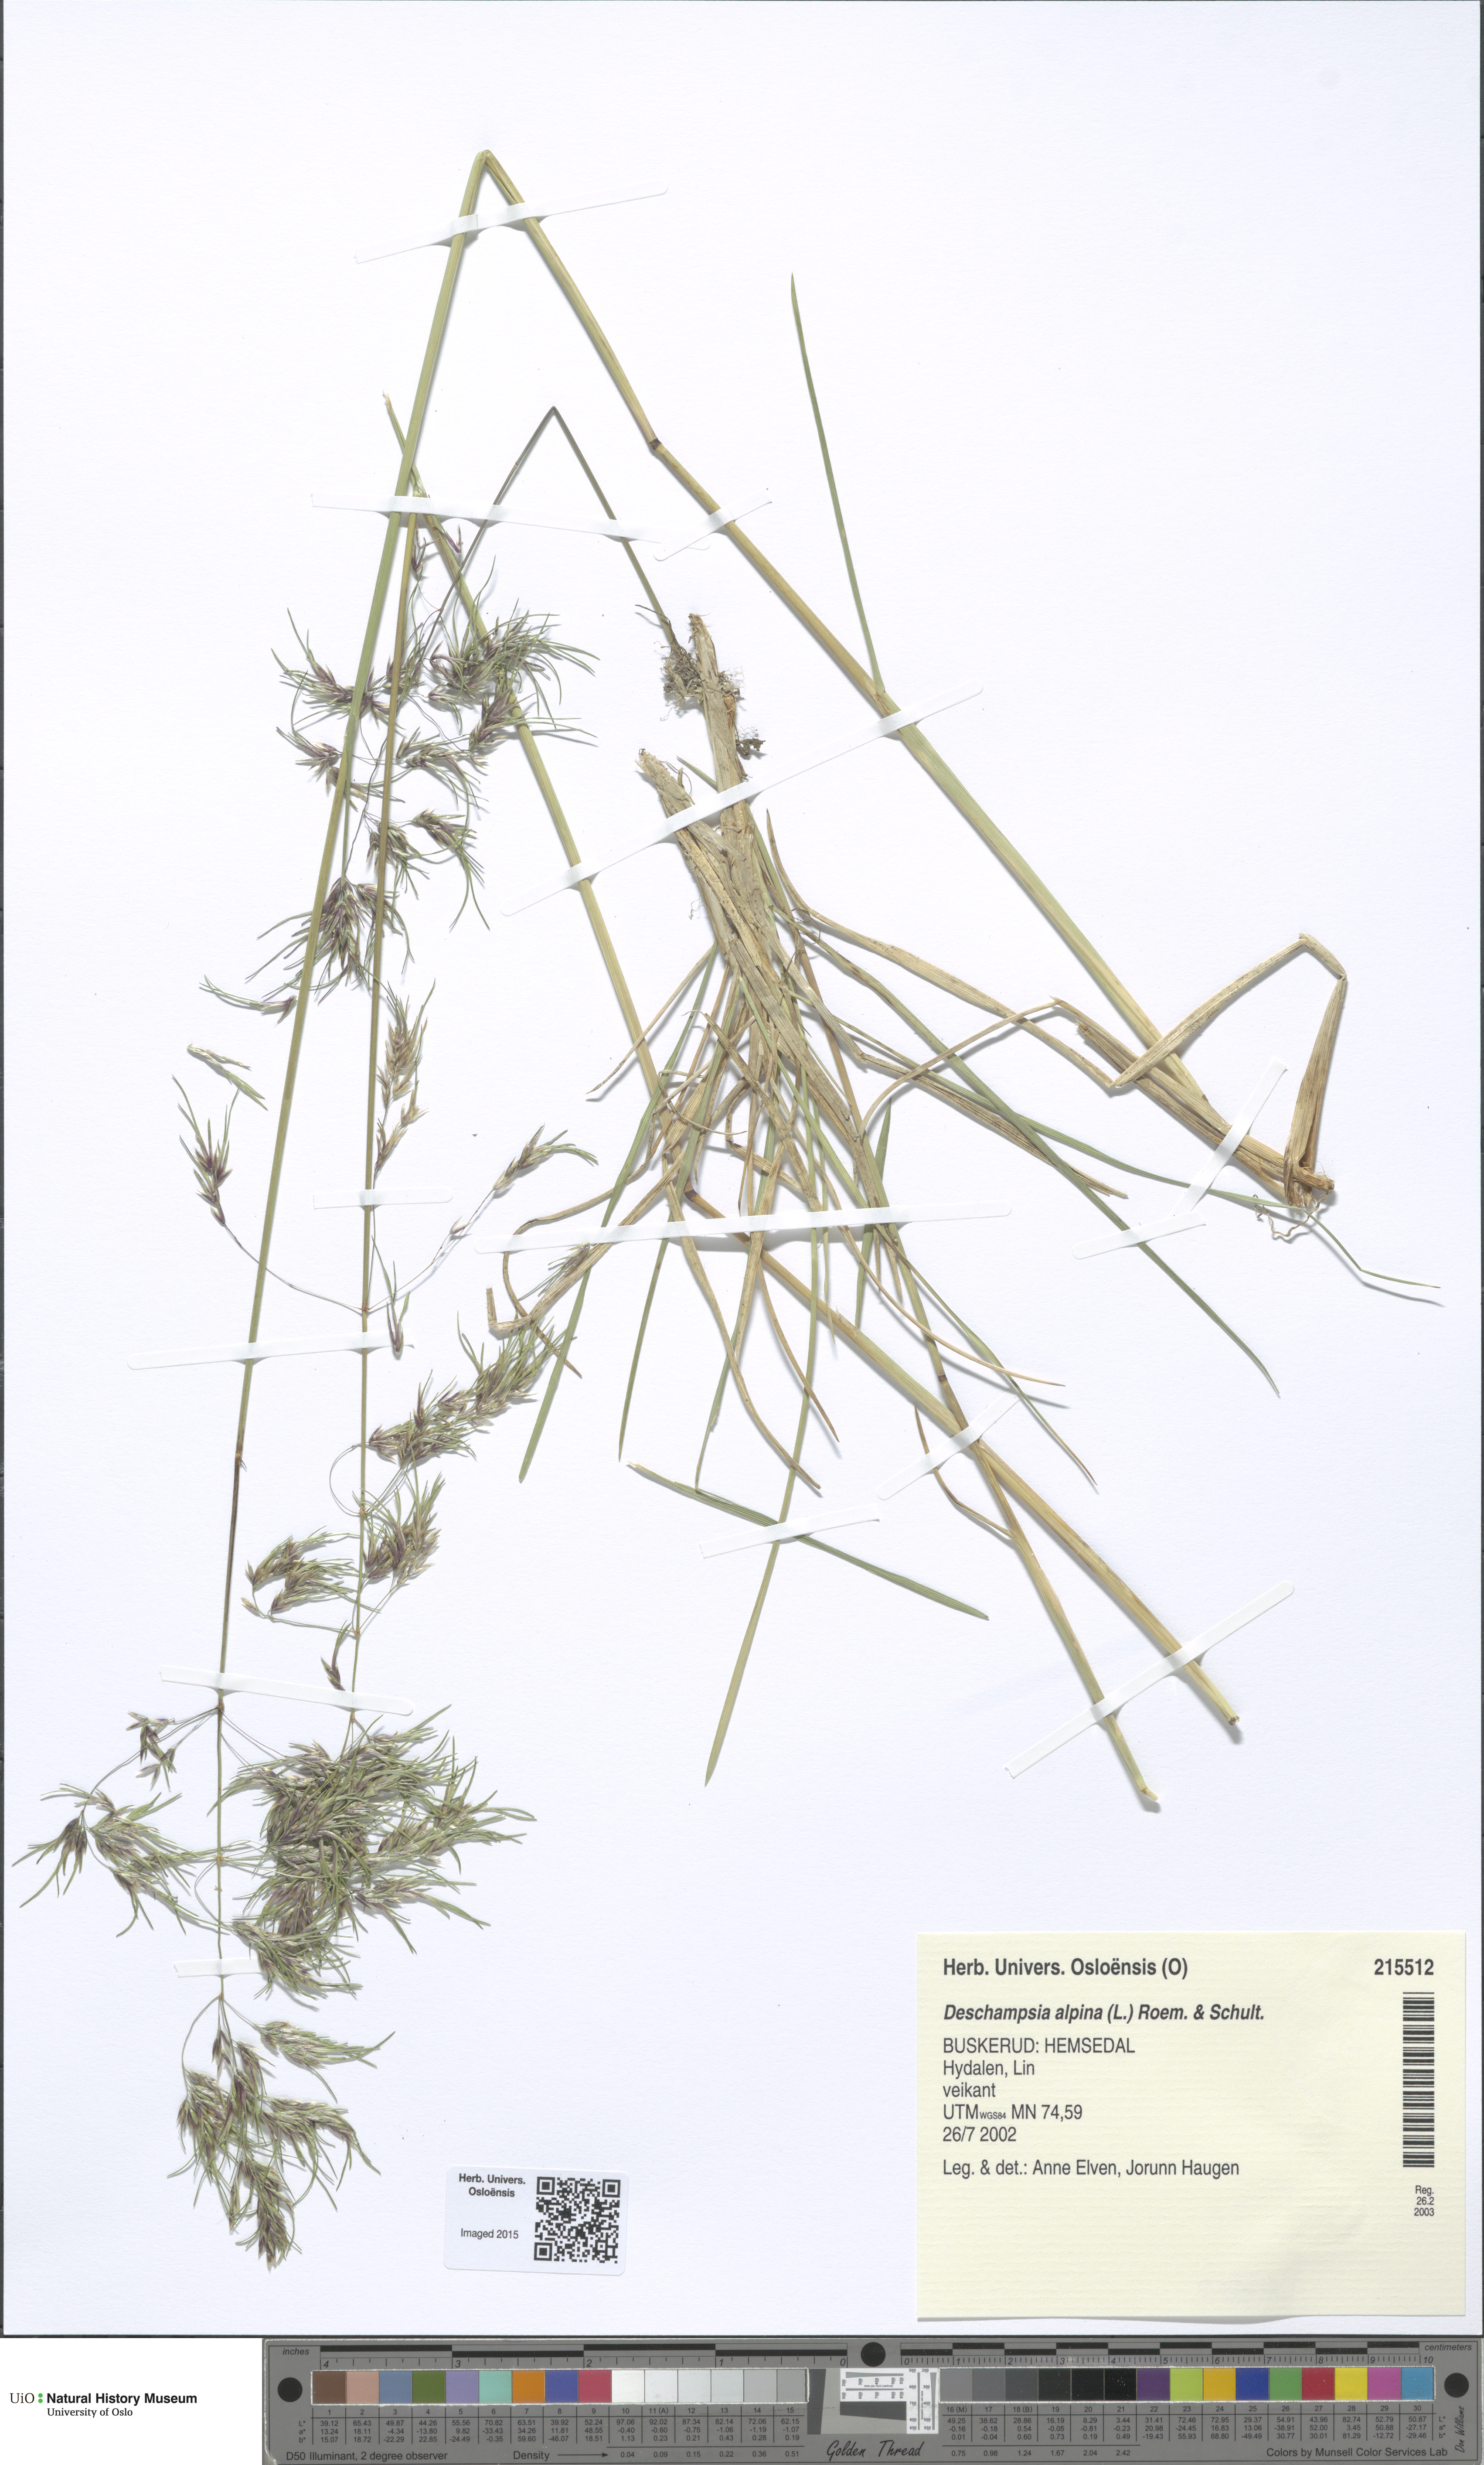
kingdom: Plantae
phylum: Tracheophyta
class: Liliopsida
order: Poales
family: Poaceae
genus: Deschampsia
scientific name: Deschampsia cespitosa
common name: Tufted hair-grass
